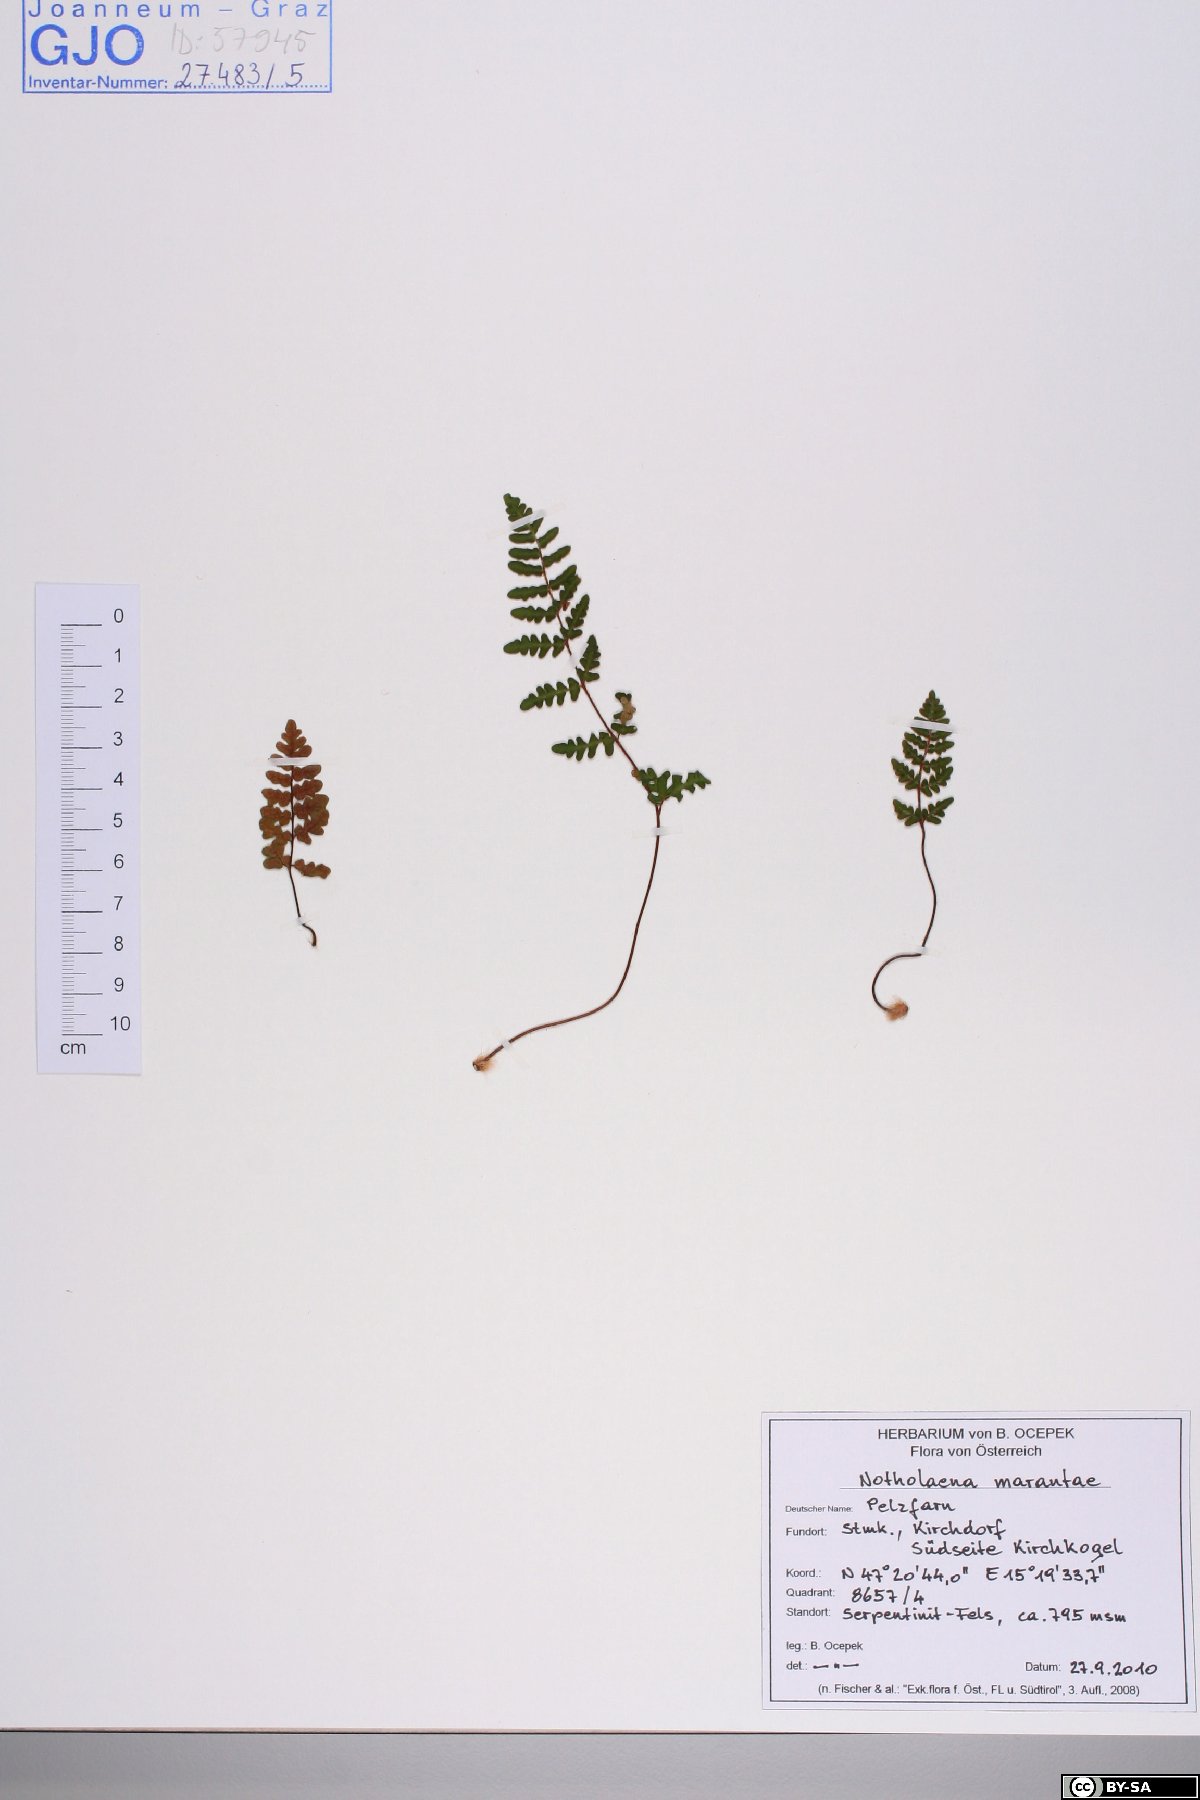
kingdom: Plantae
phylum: Tracheophyta
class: Polypodiopsida
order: Polypodiales
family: Pteridaceae
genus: Paragymnopteris
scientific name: Paragymnopteris marantae
